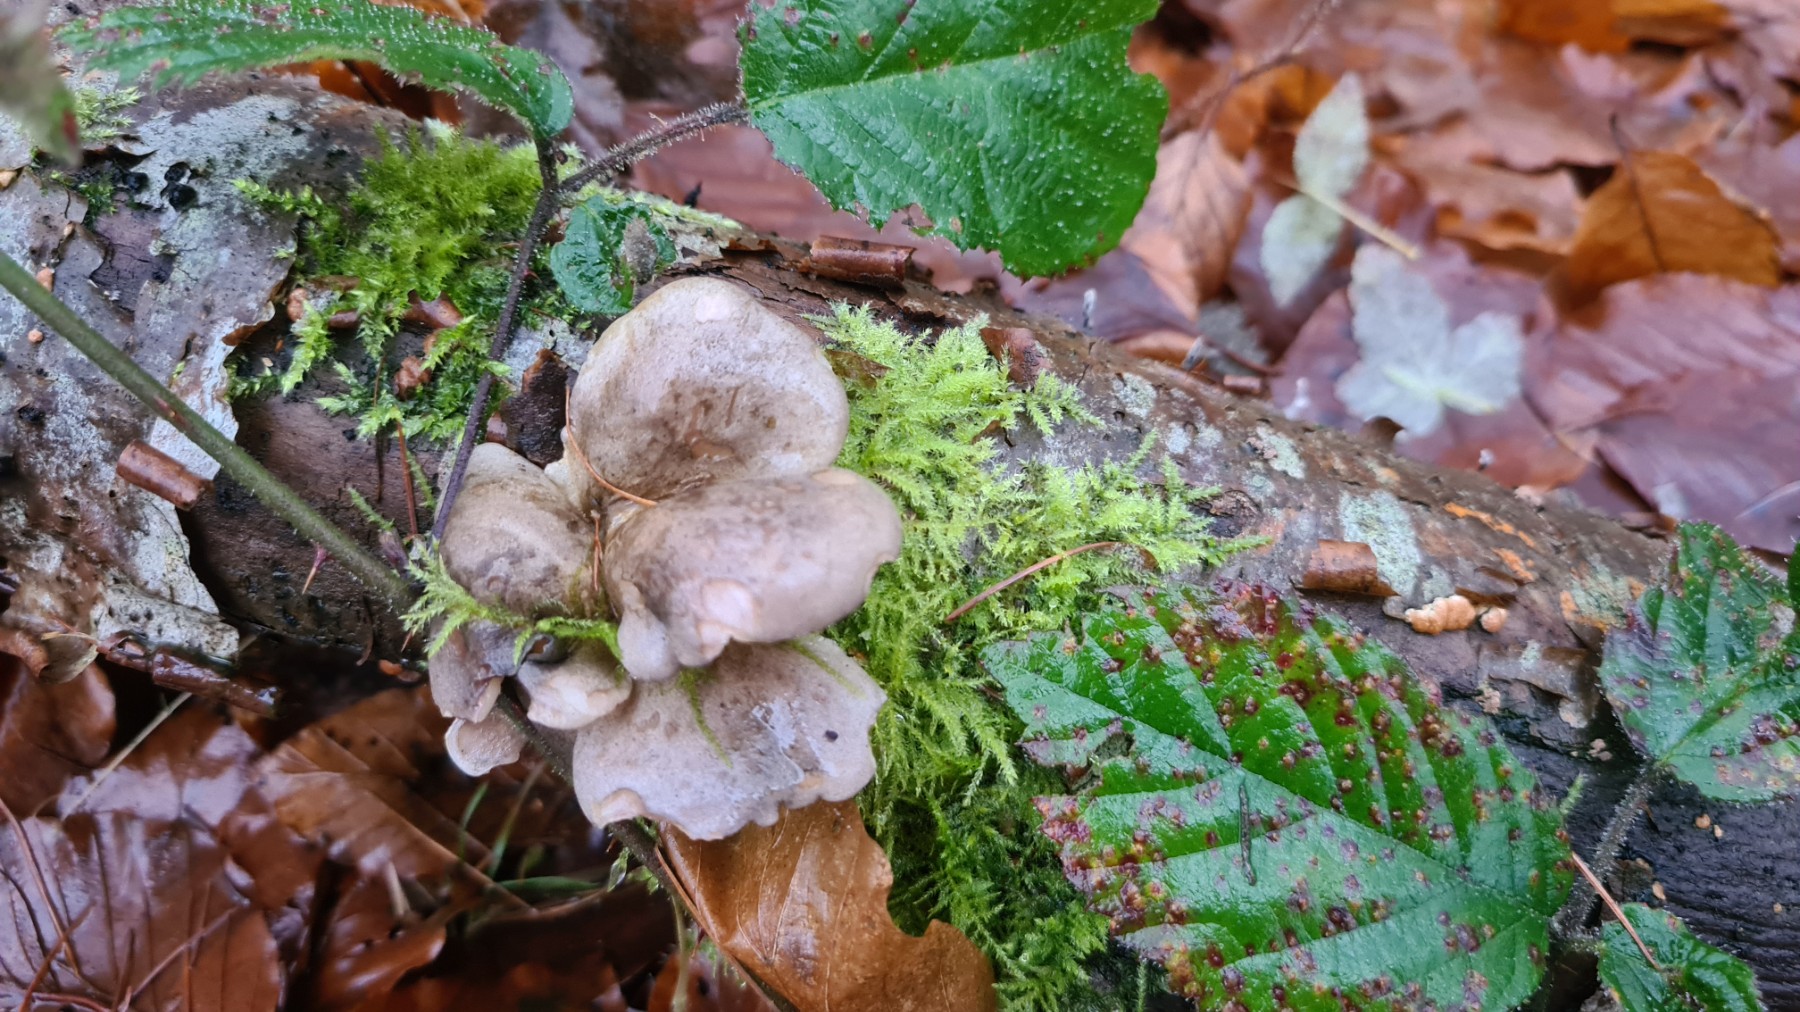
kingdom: Fungi
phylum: Basidiomycota
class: Agaricomycetes
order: Agaricales
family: Sarcomyxaceae
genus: Sarcomyxa
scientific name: Sarcomyxa serotina
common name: gummihat
